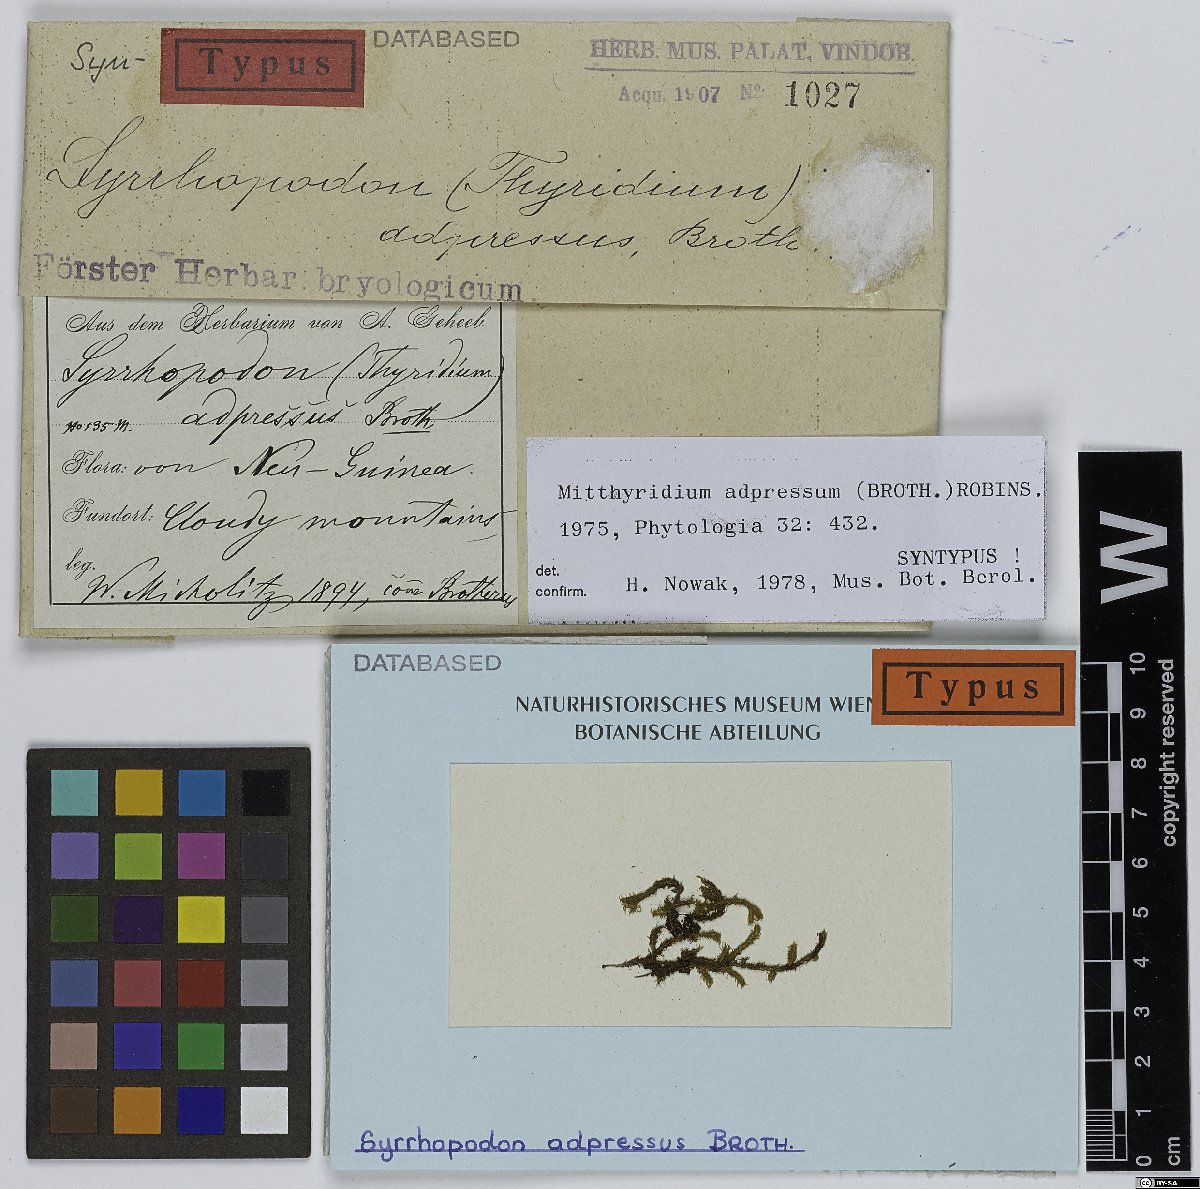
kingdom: Plantae
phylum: Bryophyta
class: Bryopsida
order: Dicranales
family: Calymperaceae
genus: Mitthyridium
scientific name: Mitthyridium undulatum
